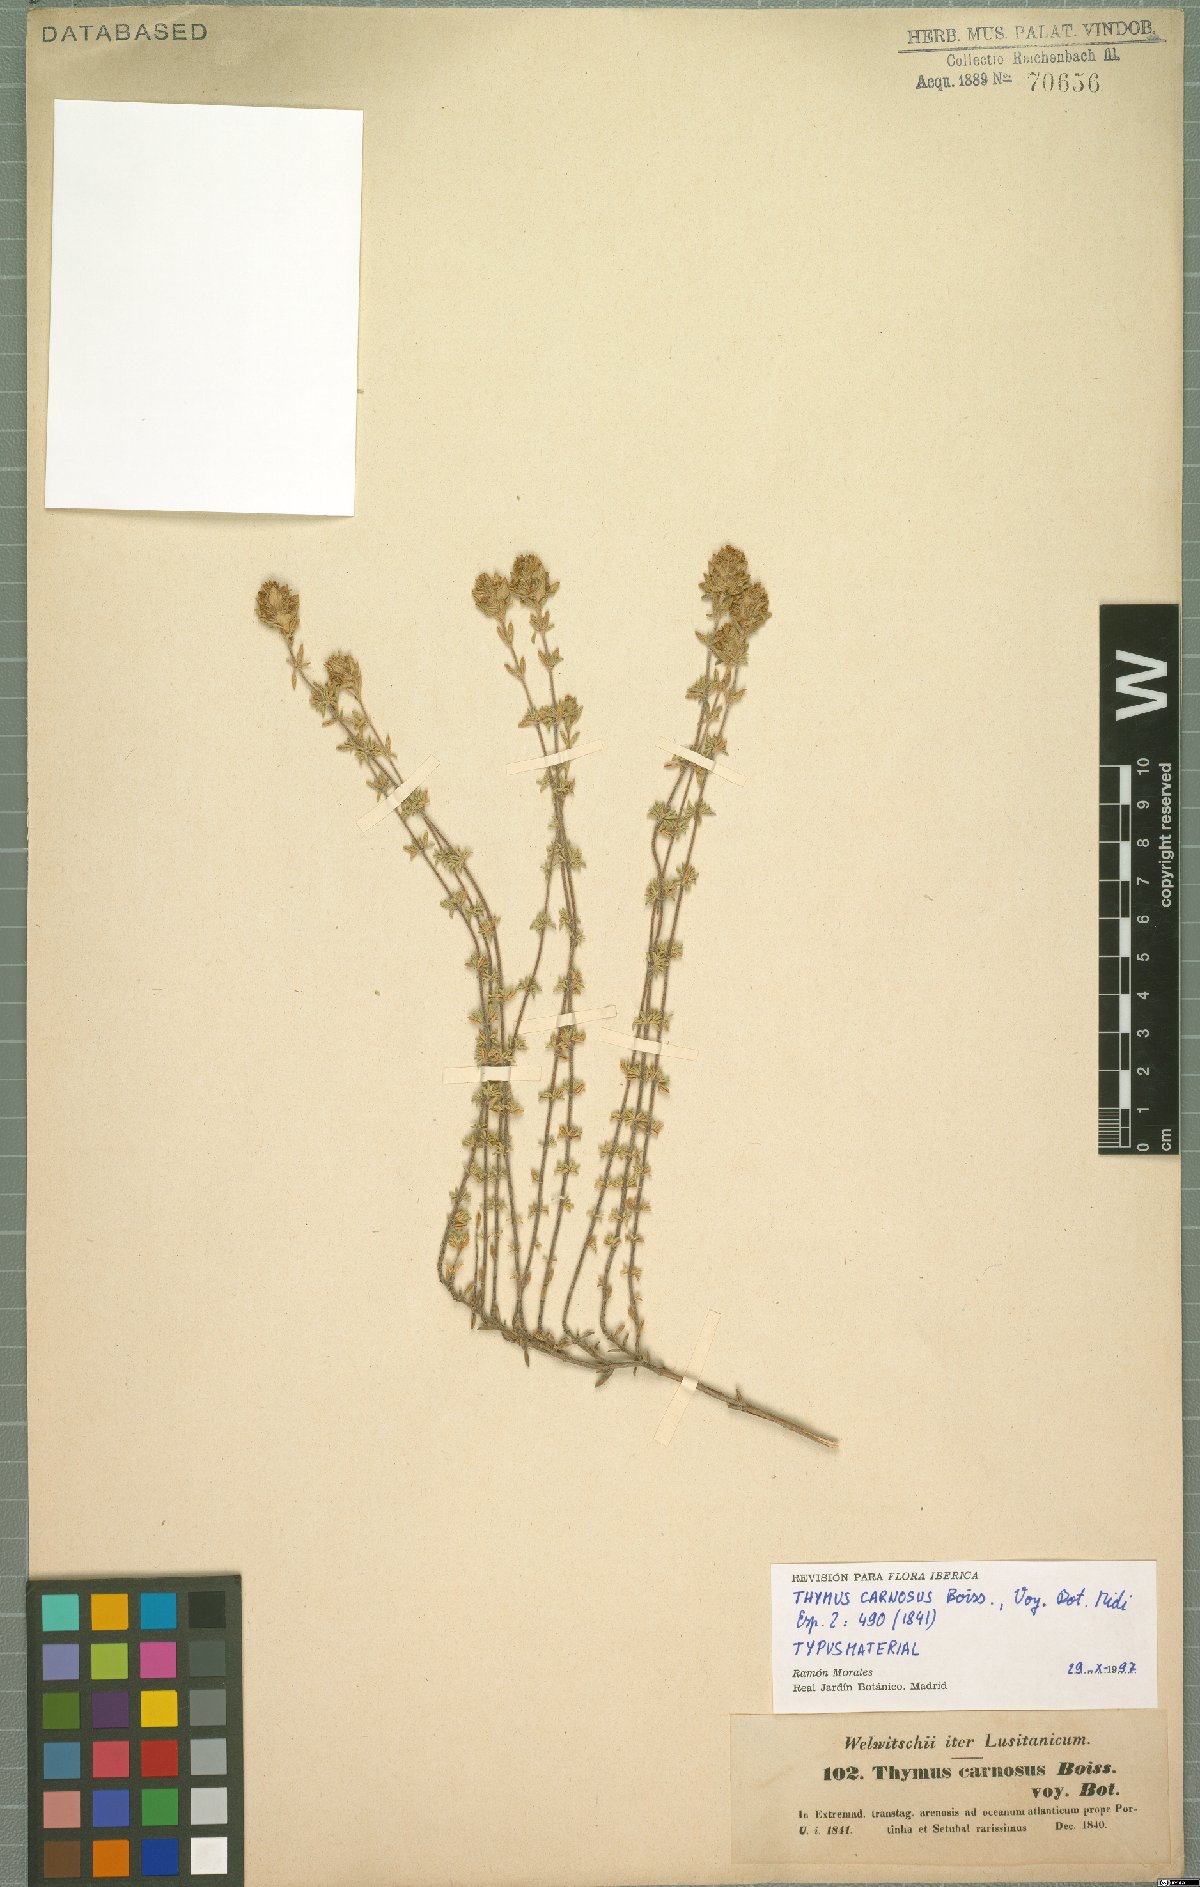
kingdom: Plantae
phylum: Tracheophyta
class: Magnoliopsida
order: Lamiales
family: Lamiaceae
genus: Thymus
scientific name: Thymus carnosus
